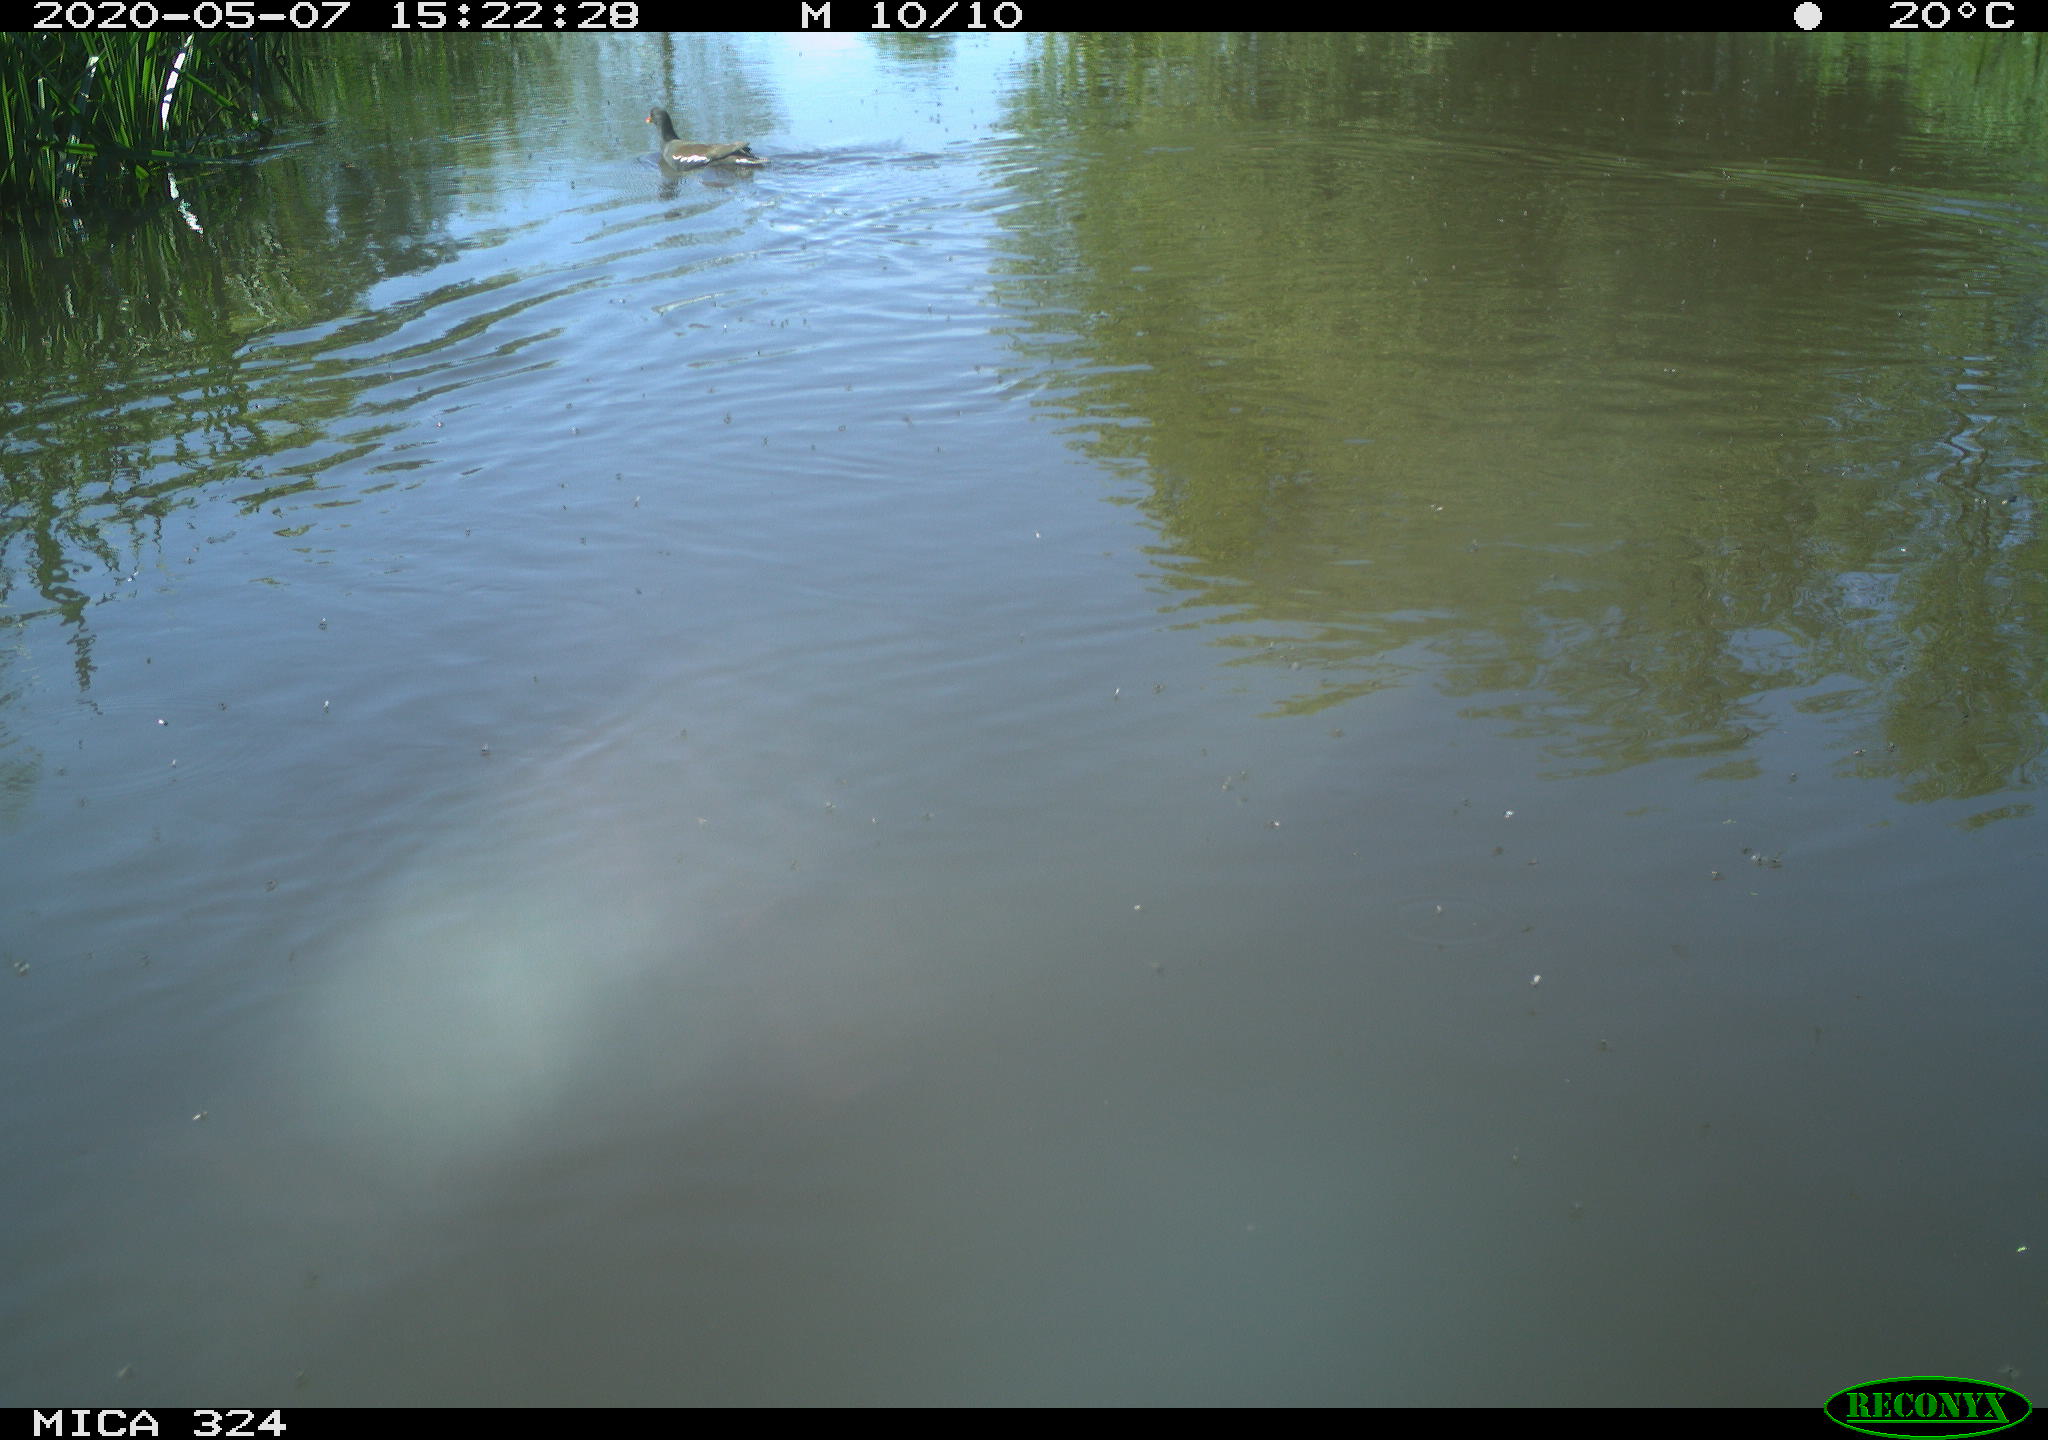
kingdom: Animalia
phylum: Chordata
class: Aves
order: Gruiformes
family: Rallidae
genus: Gallinula
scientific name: Gallinula chloropus
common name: Common moorhen
